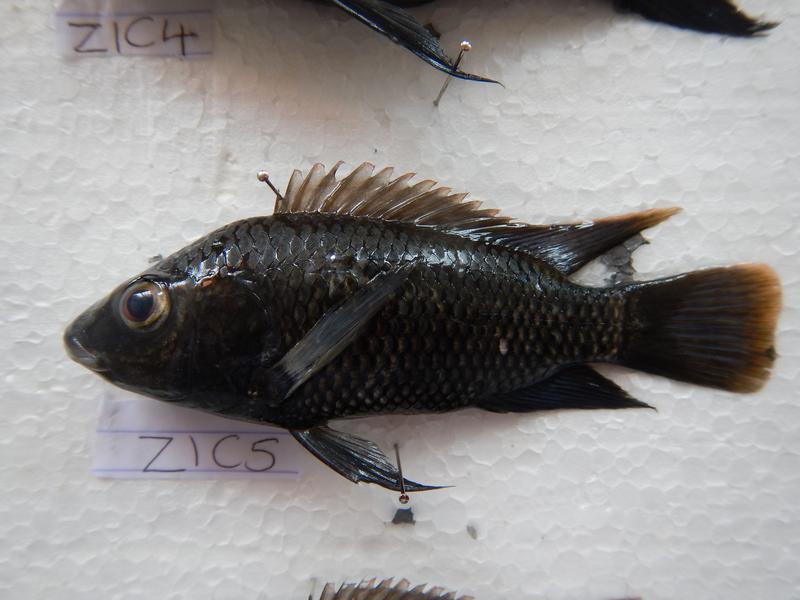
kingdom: Animalia
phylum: Chordata
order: Perciformes
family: Cichlidae
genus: Oreochromis
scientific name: Oreochromis urolepis
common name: Wami tilapia
